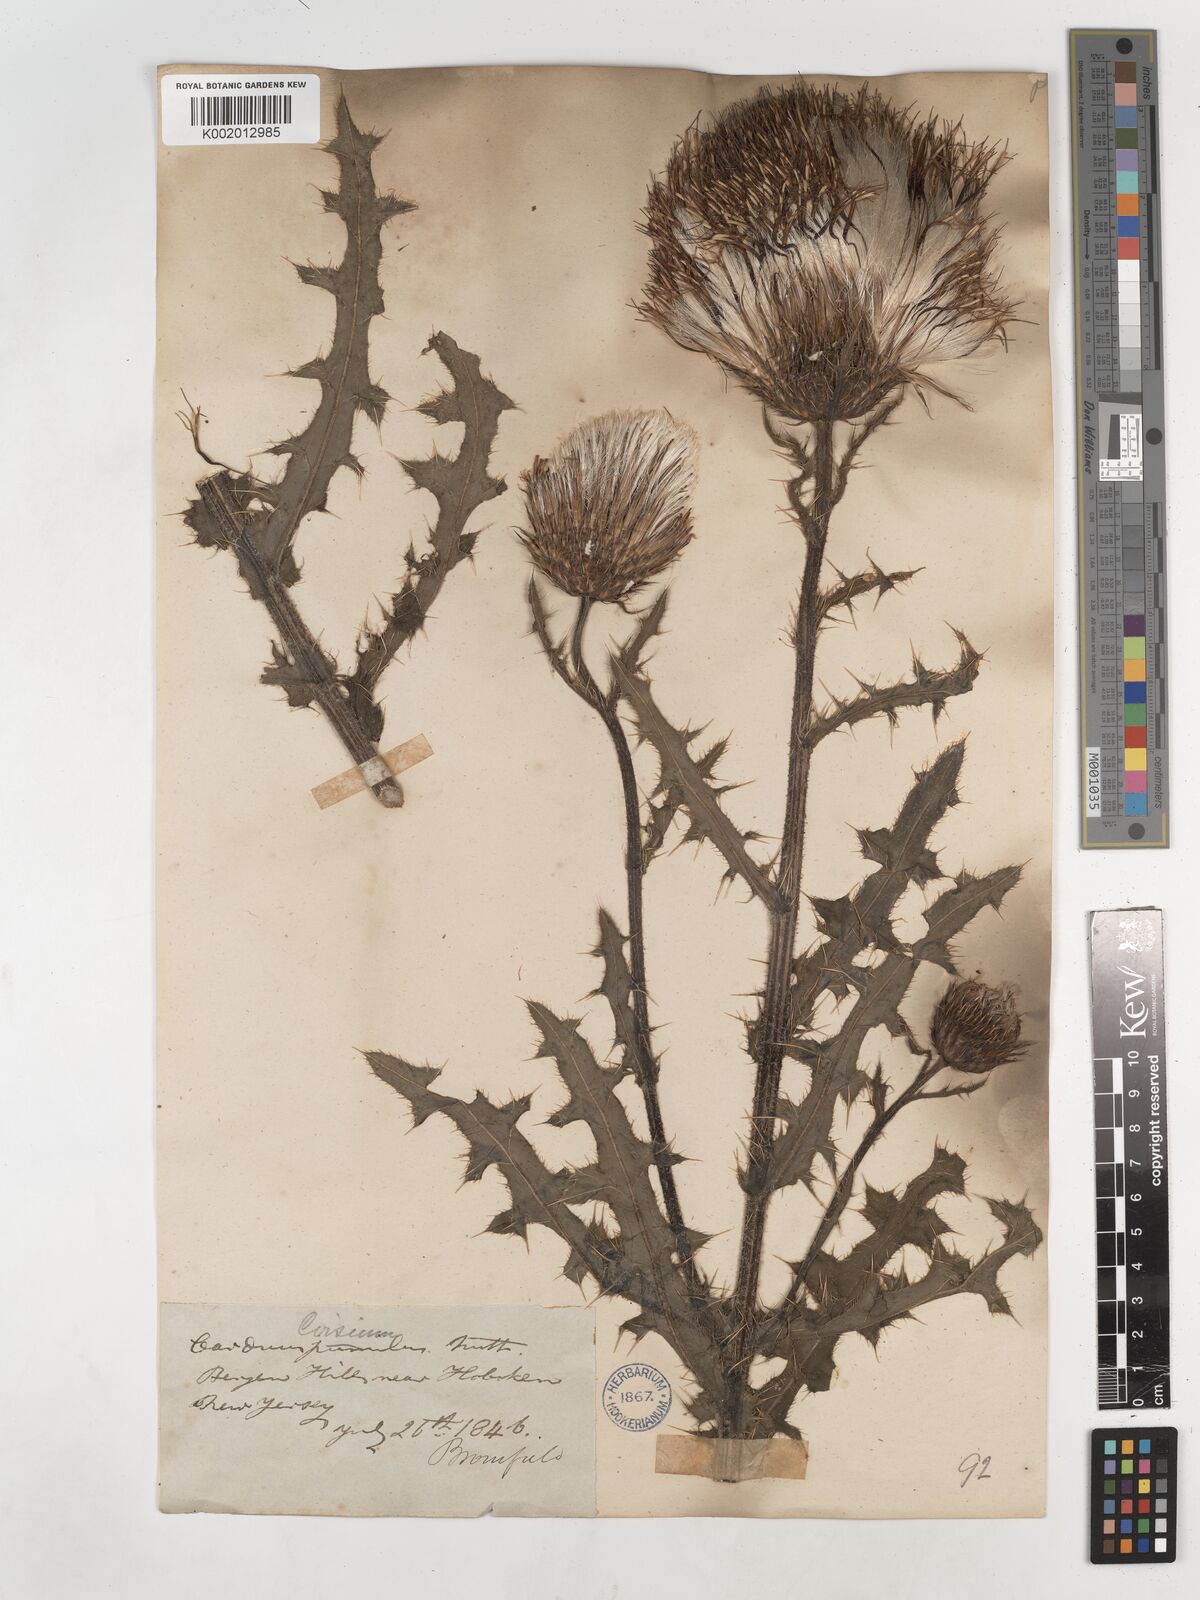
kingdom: Plantae
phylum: Tracheophyta
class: Magnoliopsida
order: Asterales
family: Asteraceae
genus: Cirsium
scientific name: Cirsium pumilum
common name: Pasture thistle
